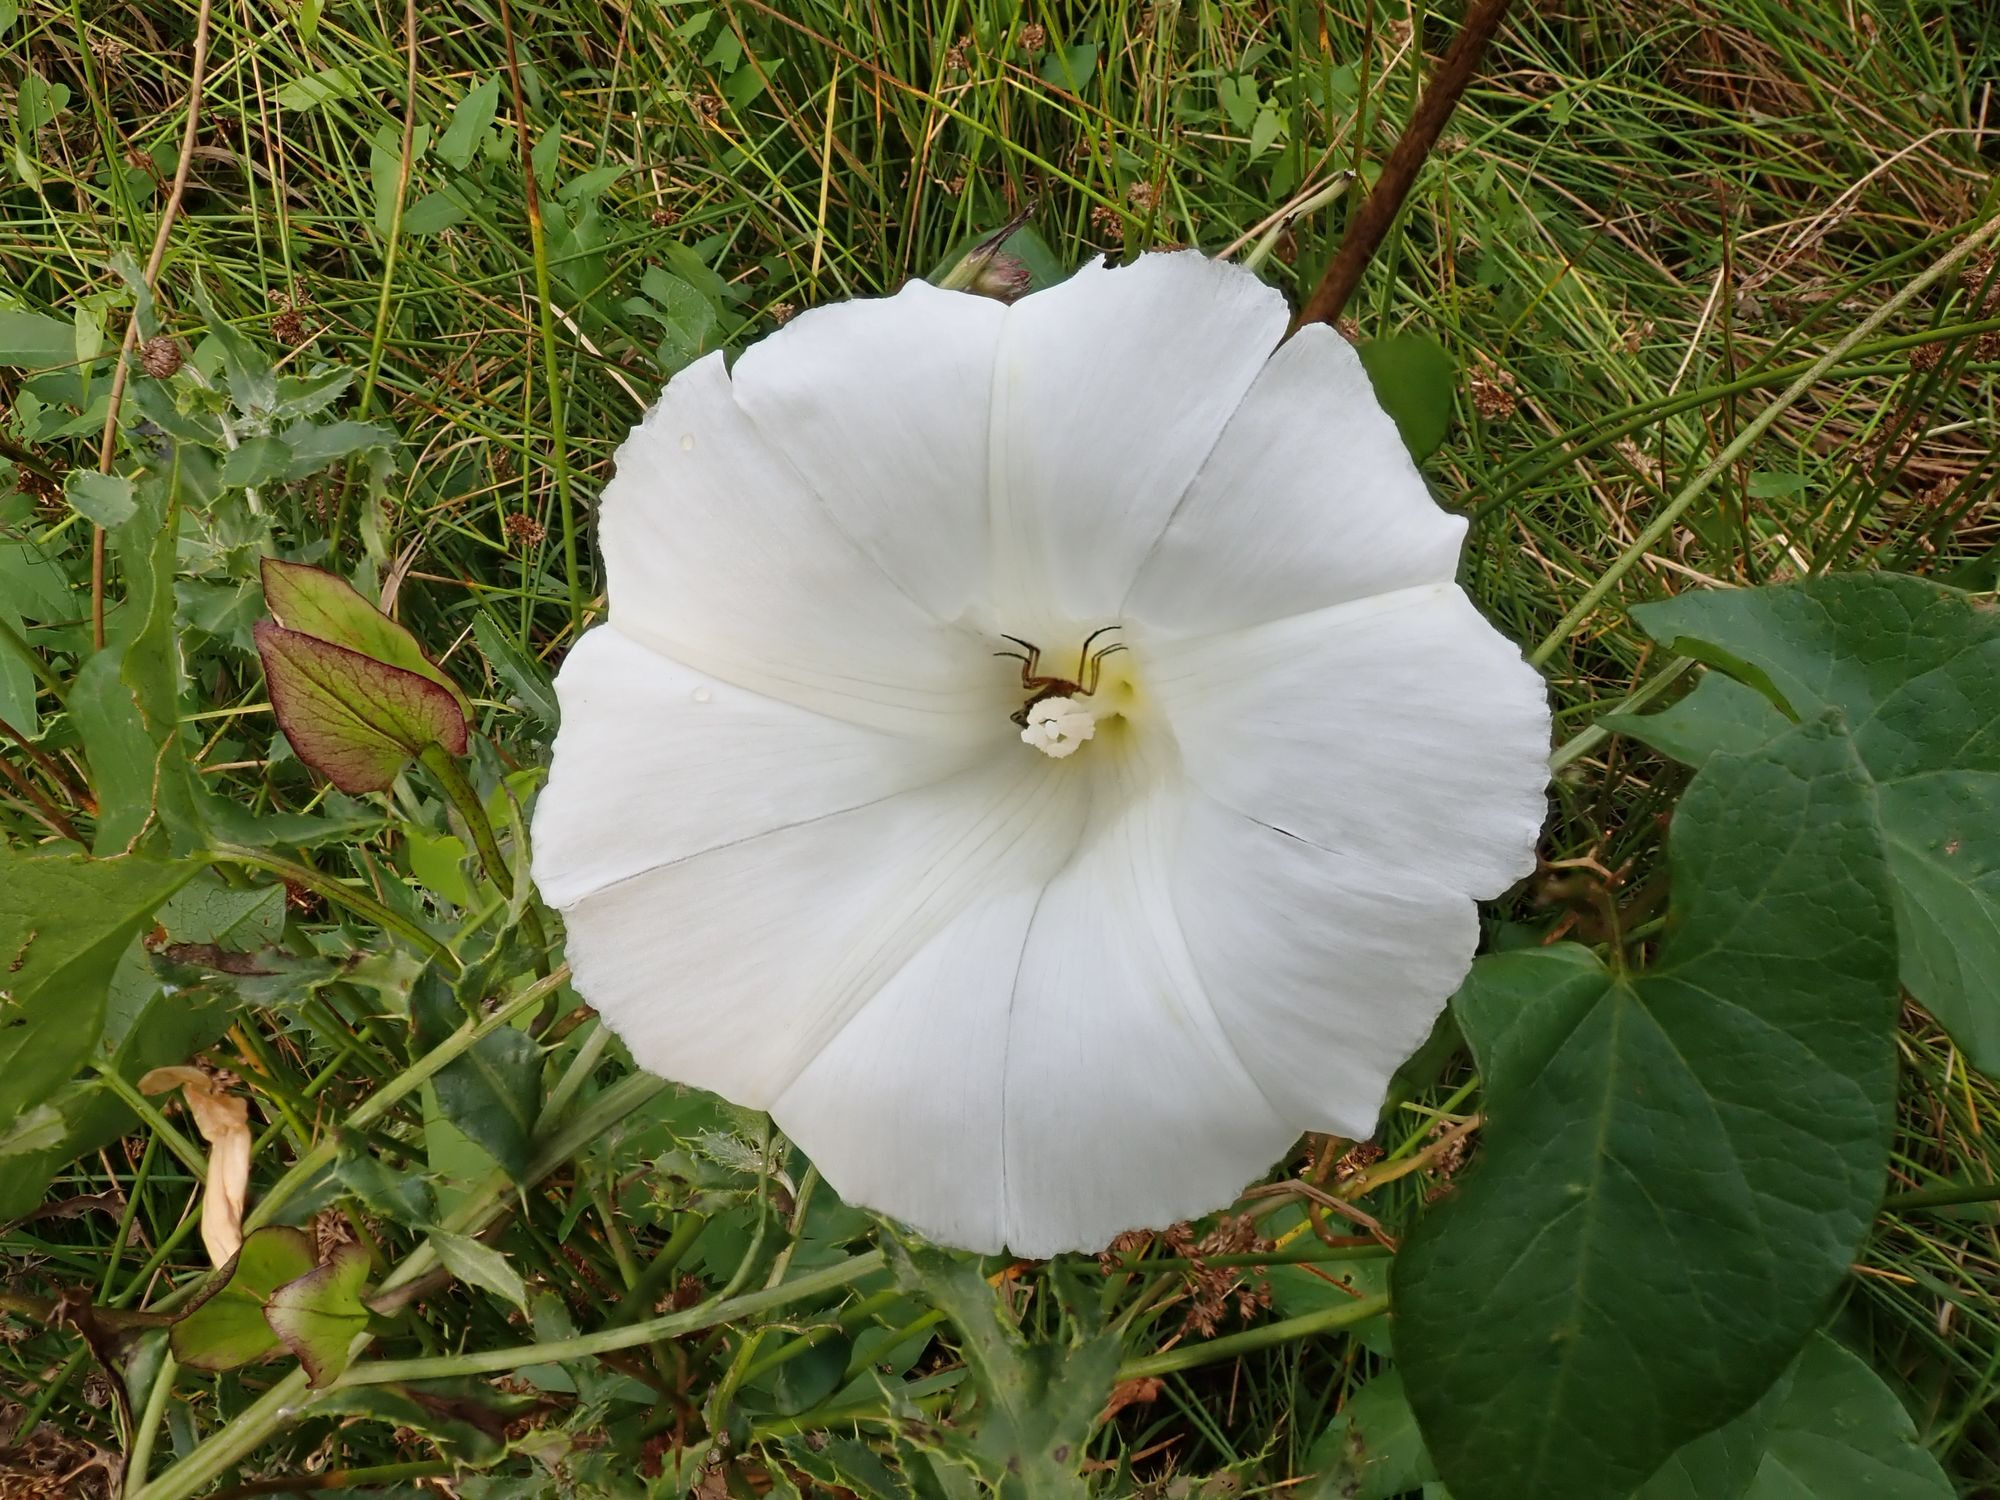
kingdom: Plantae
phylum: Tracheophyta
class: Magnoliopsida
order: Solanales
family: Convolvulaceae
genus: Calystegia
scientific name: Calystegia sepium
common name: Gærde-snerle
